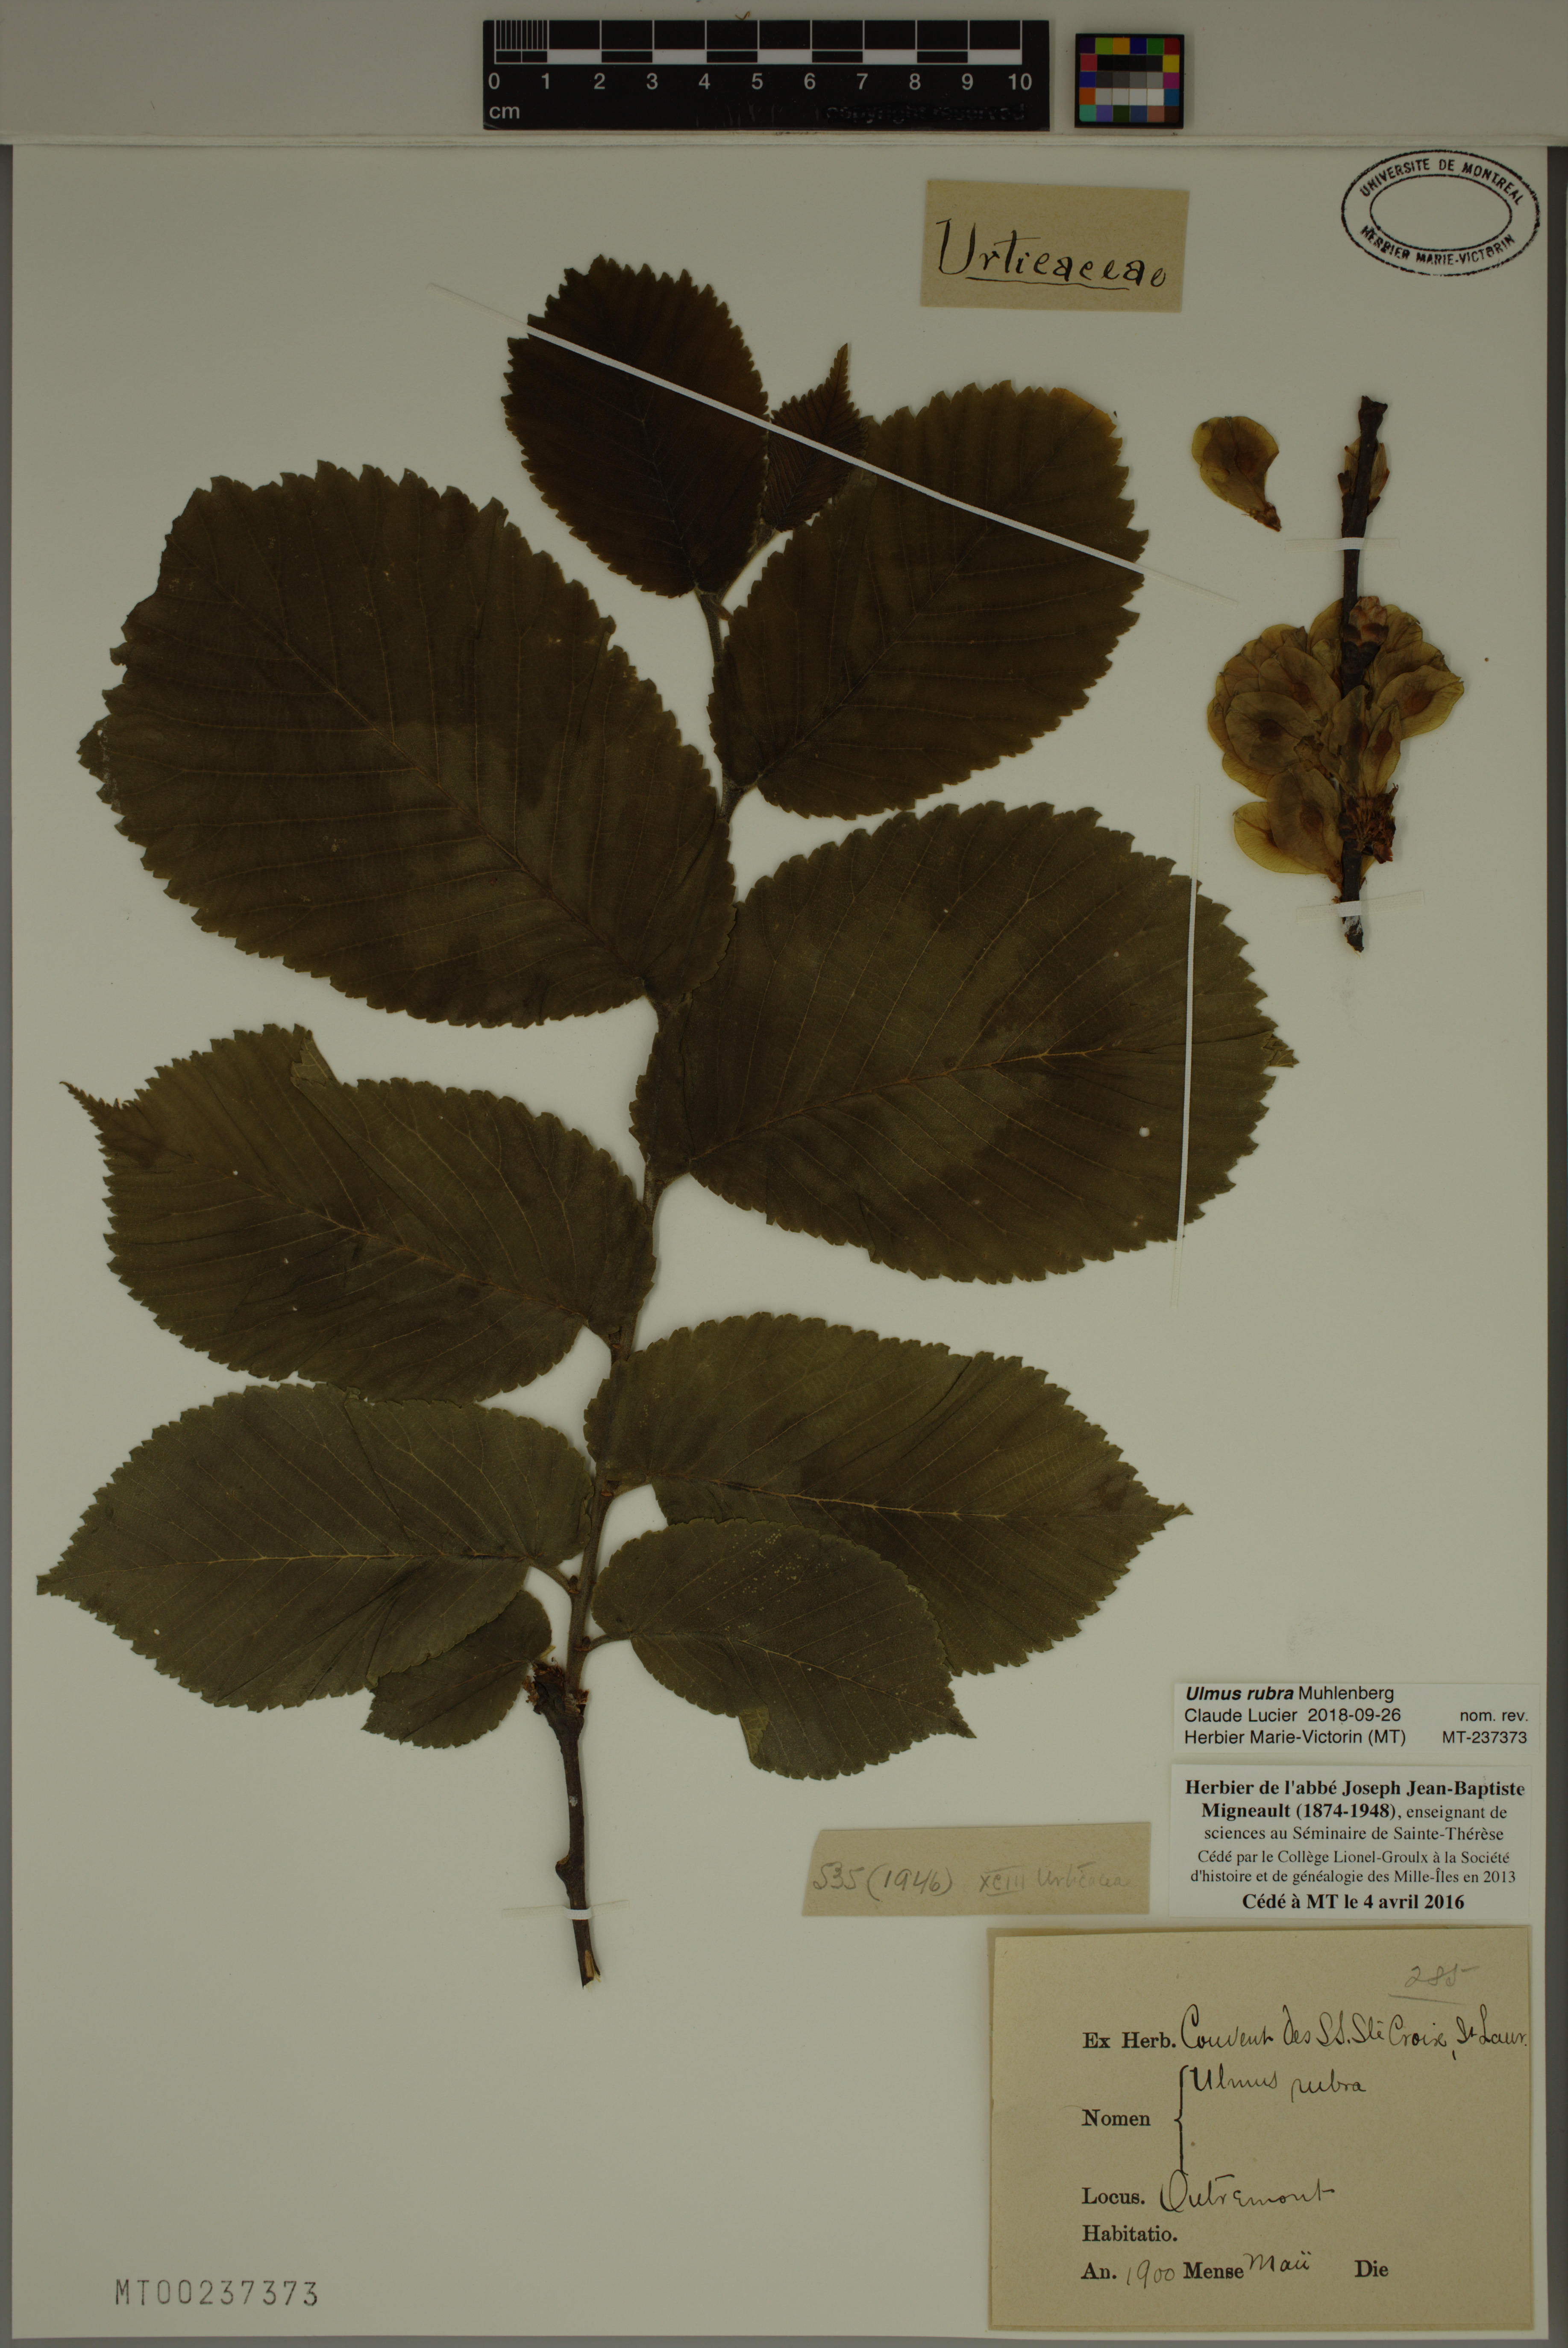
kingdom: Plantae
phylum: Tracheophyta
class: Magnoliopsida
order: Rosales
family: Ulmaceae
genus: Ulmus
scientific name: Ulmus rubra
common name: Slippery elm
